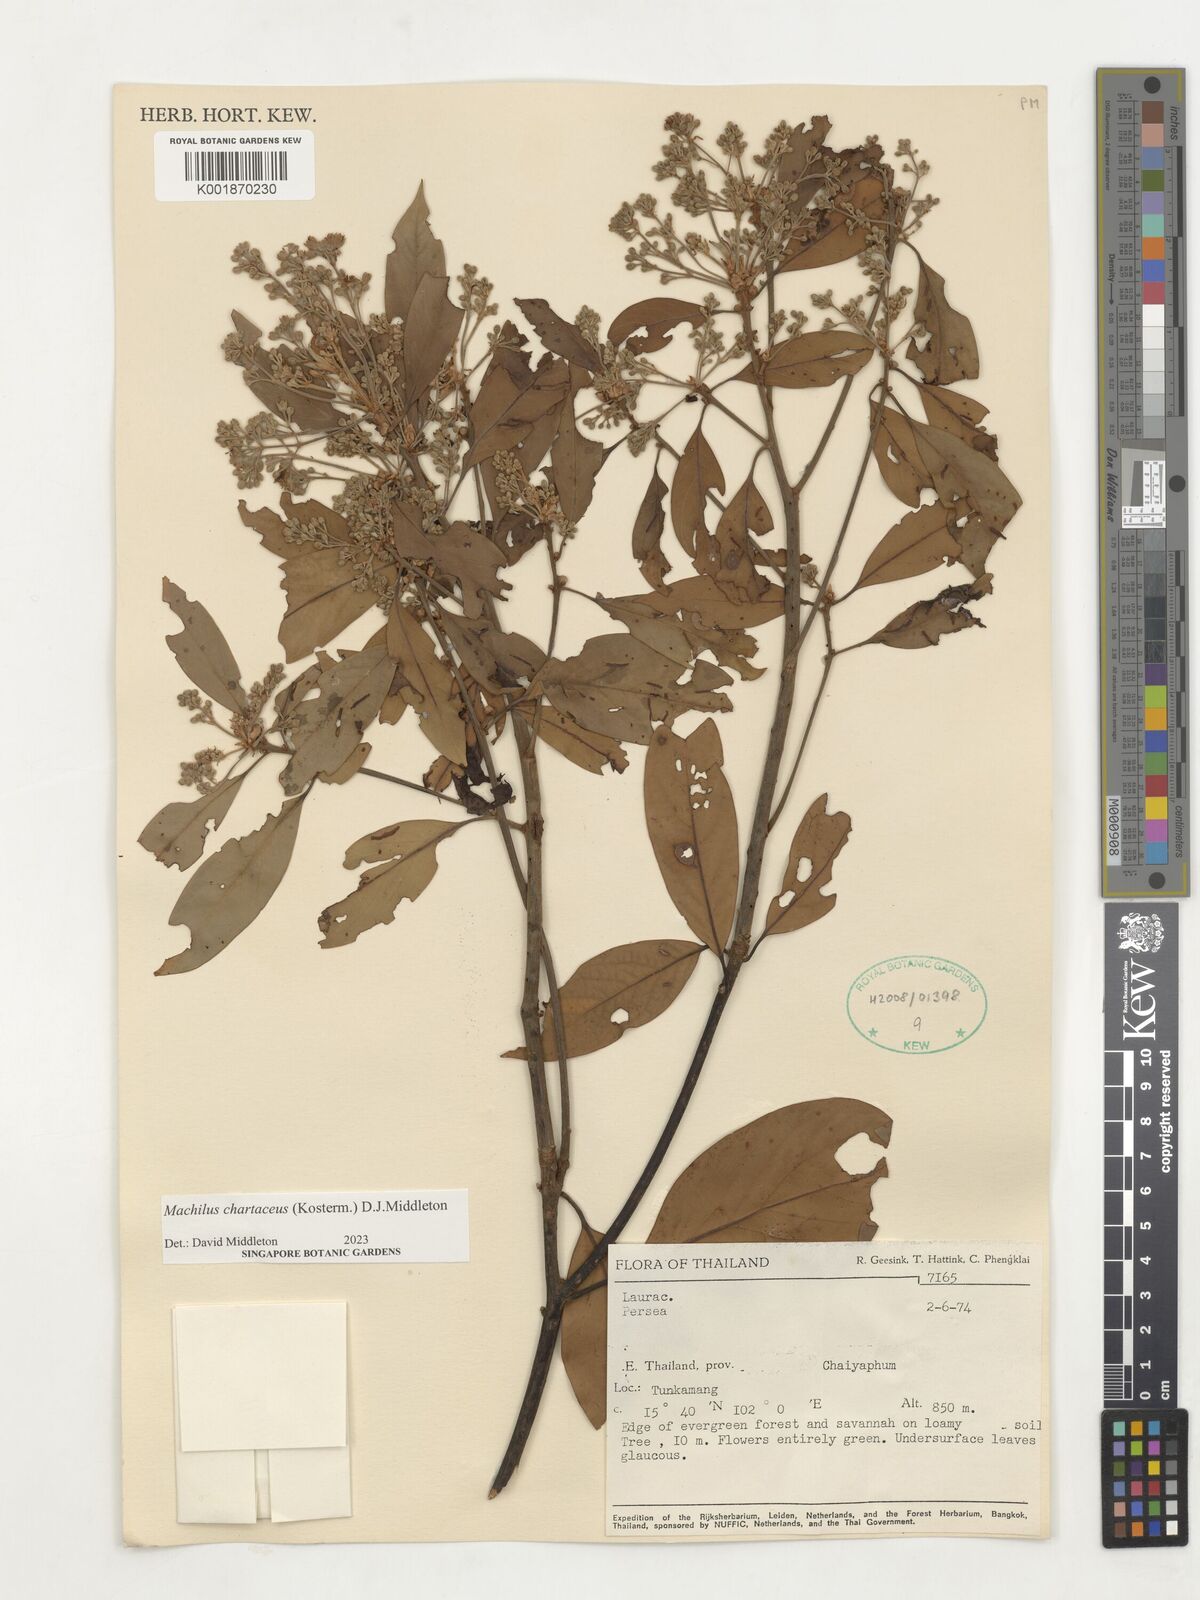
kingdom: Plantae
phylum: Tracheophyta
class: Magnoliopsida
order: Laurales
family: Lauraceae
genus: Machilus
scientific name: Machilus
